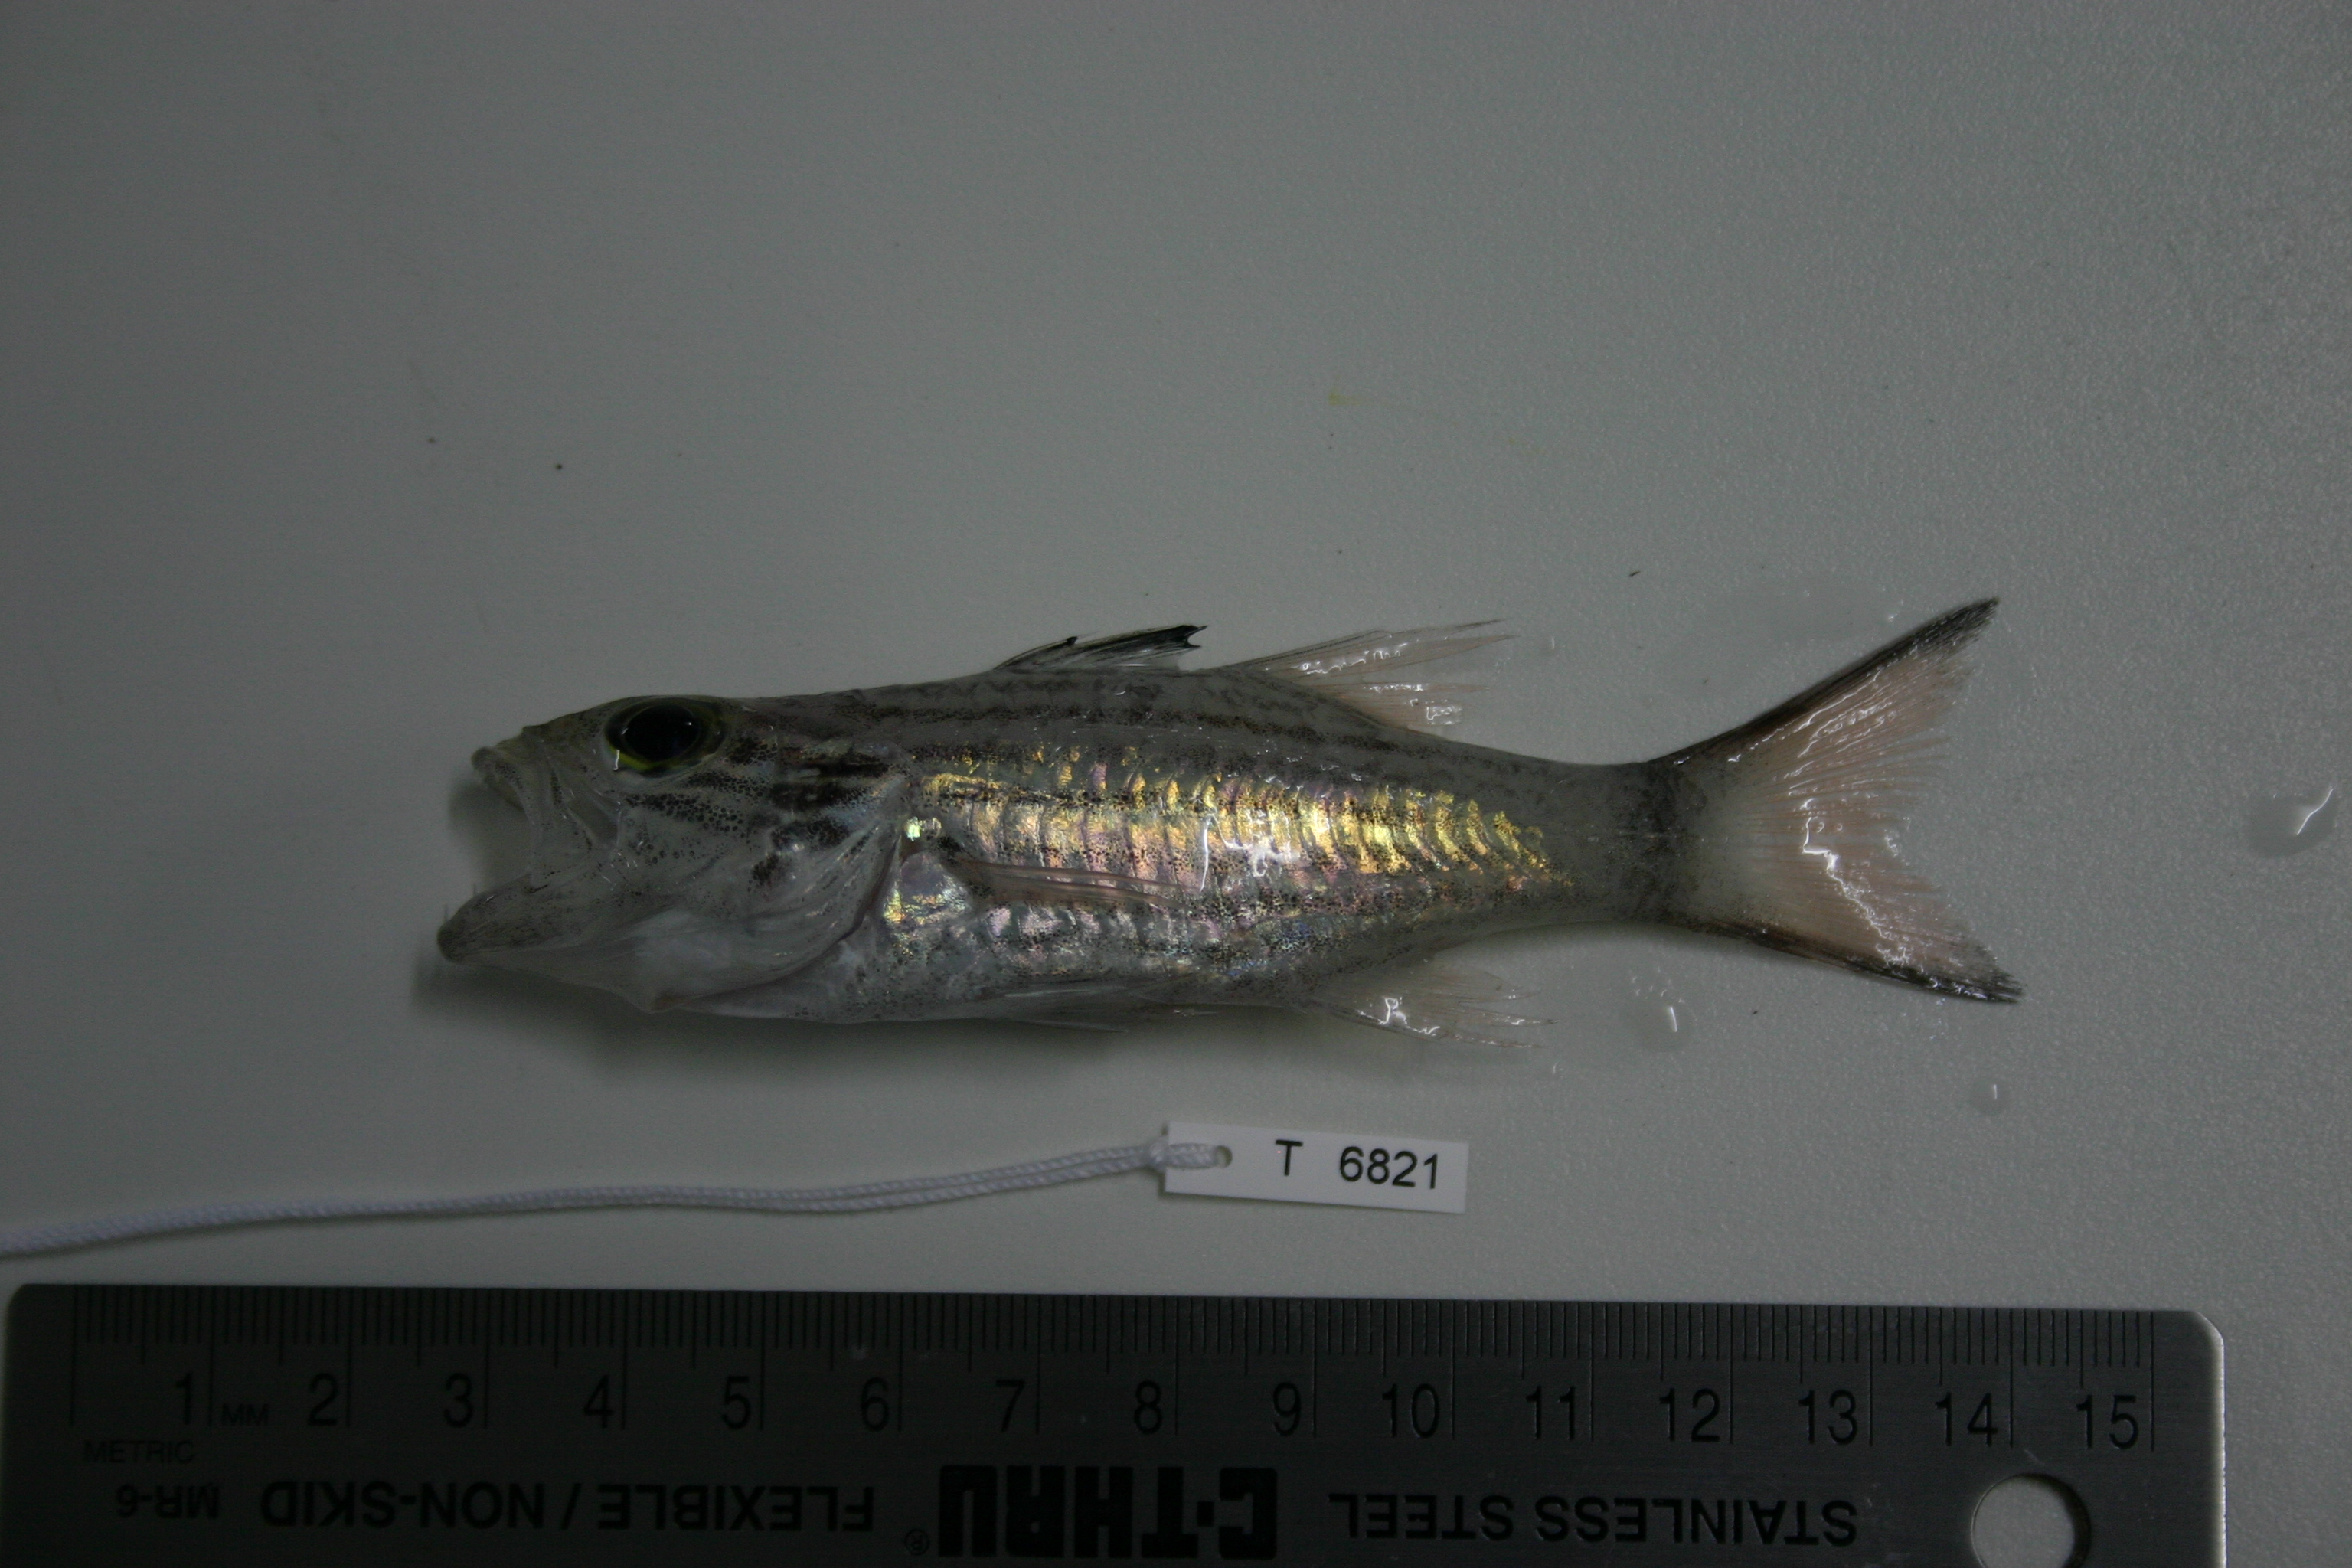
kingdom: Animalia
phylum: Chordata
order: Perciformes
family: Apogonidae
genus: Cheilodipterus
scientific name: Cheilodipterus macrodon
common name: Eight-lined cardinalfish
